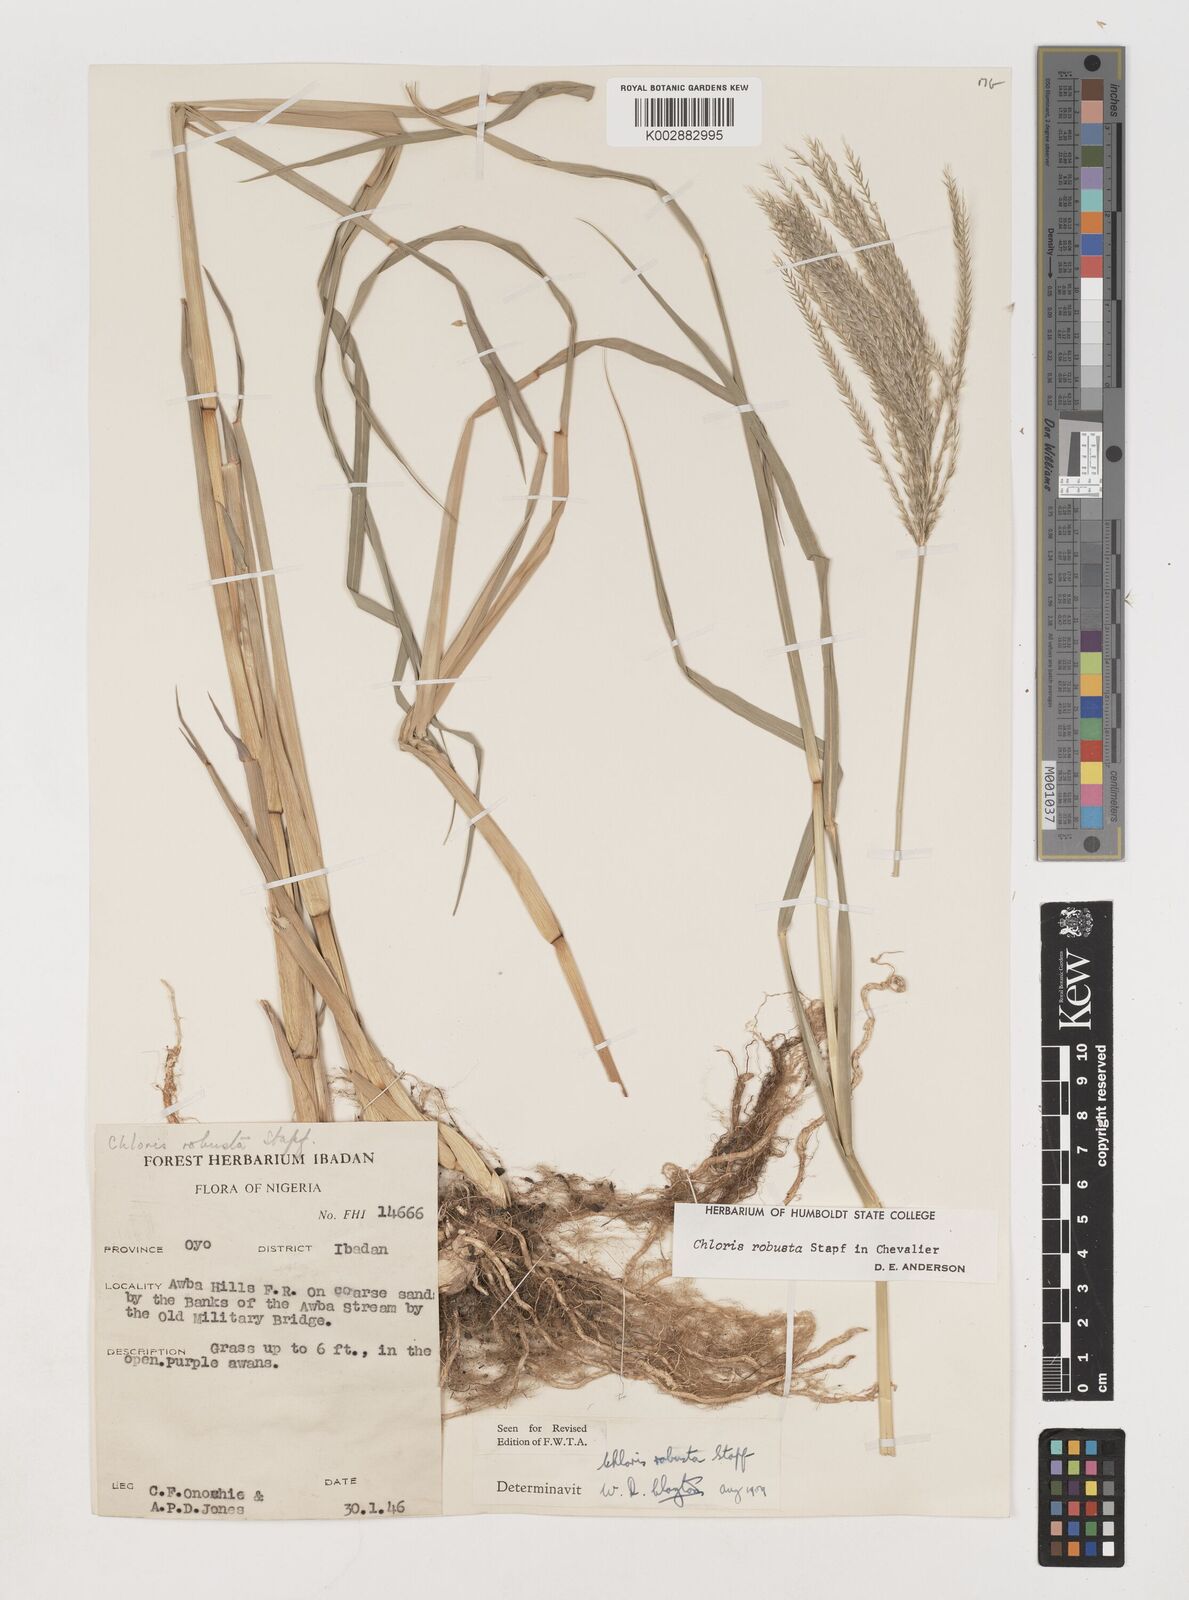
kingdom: Plantae
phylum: Tracheophyta
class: Liliopsida
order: Poales
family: Poaceae
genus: Chloris
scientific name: Chloris robusta
